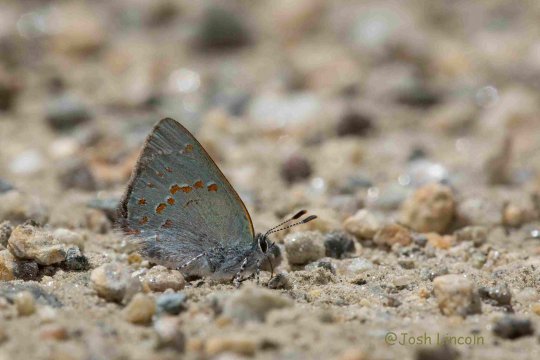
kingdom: Animalia
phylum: Arthropoda
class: Insecta
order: Lepidoptera
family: Lycaenidae
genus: Erora
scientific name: Erora laeta
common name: Early Hairstreak
